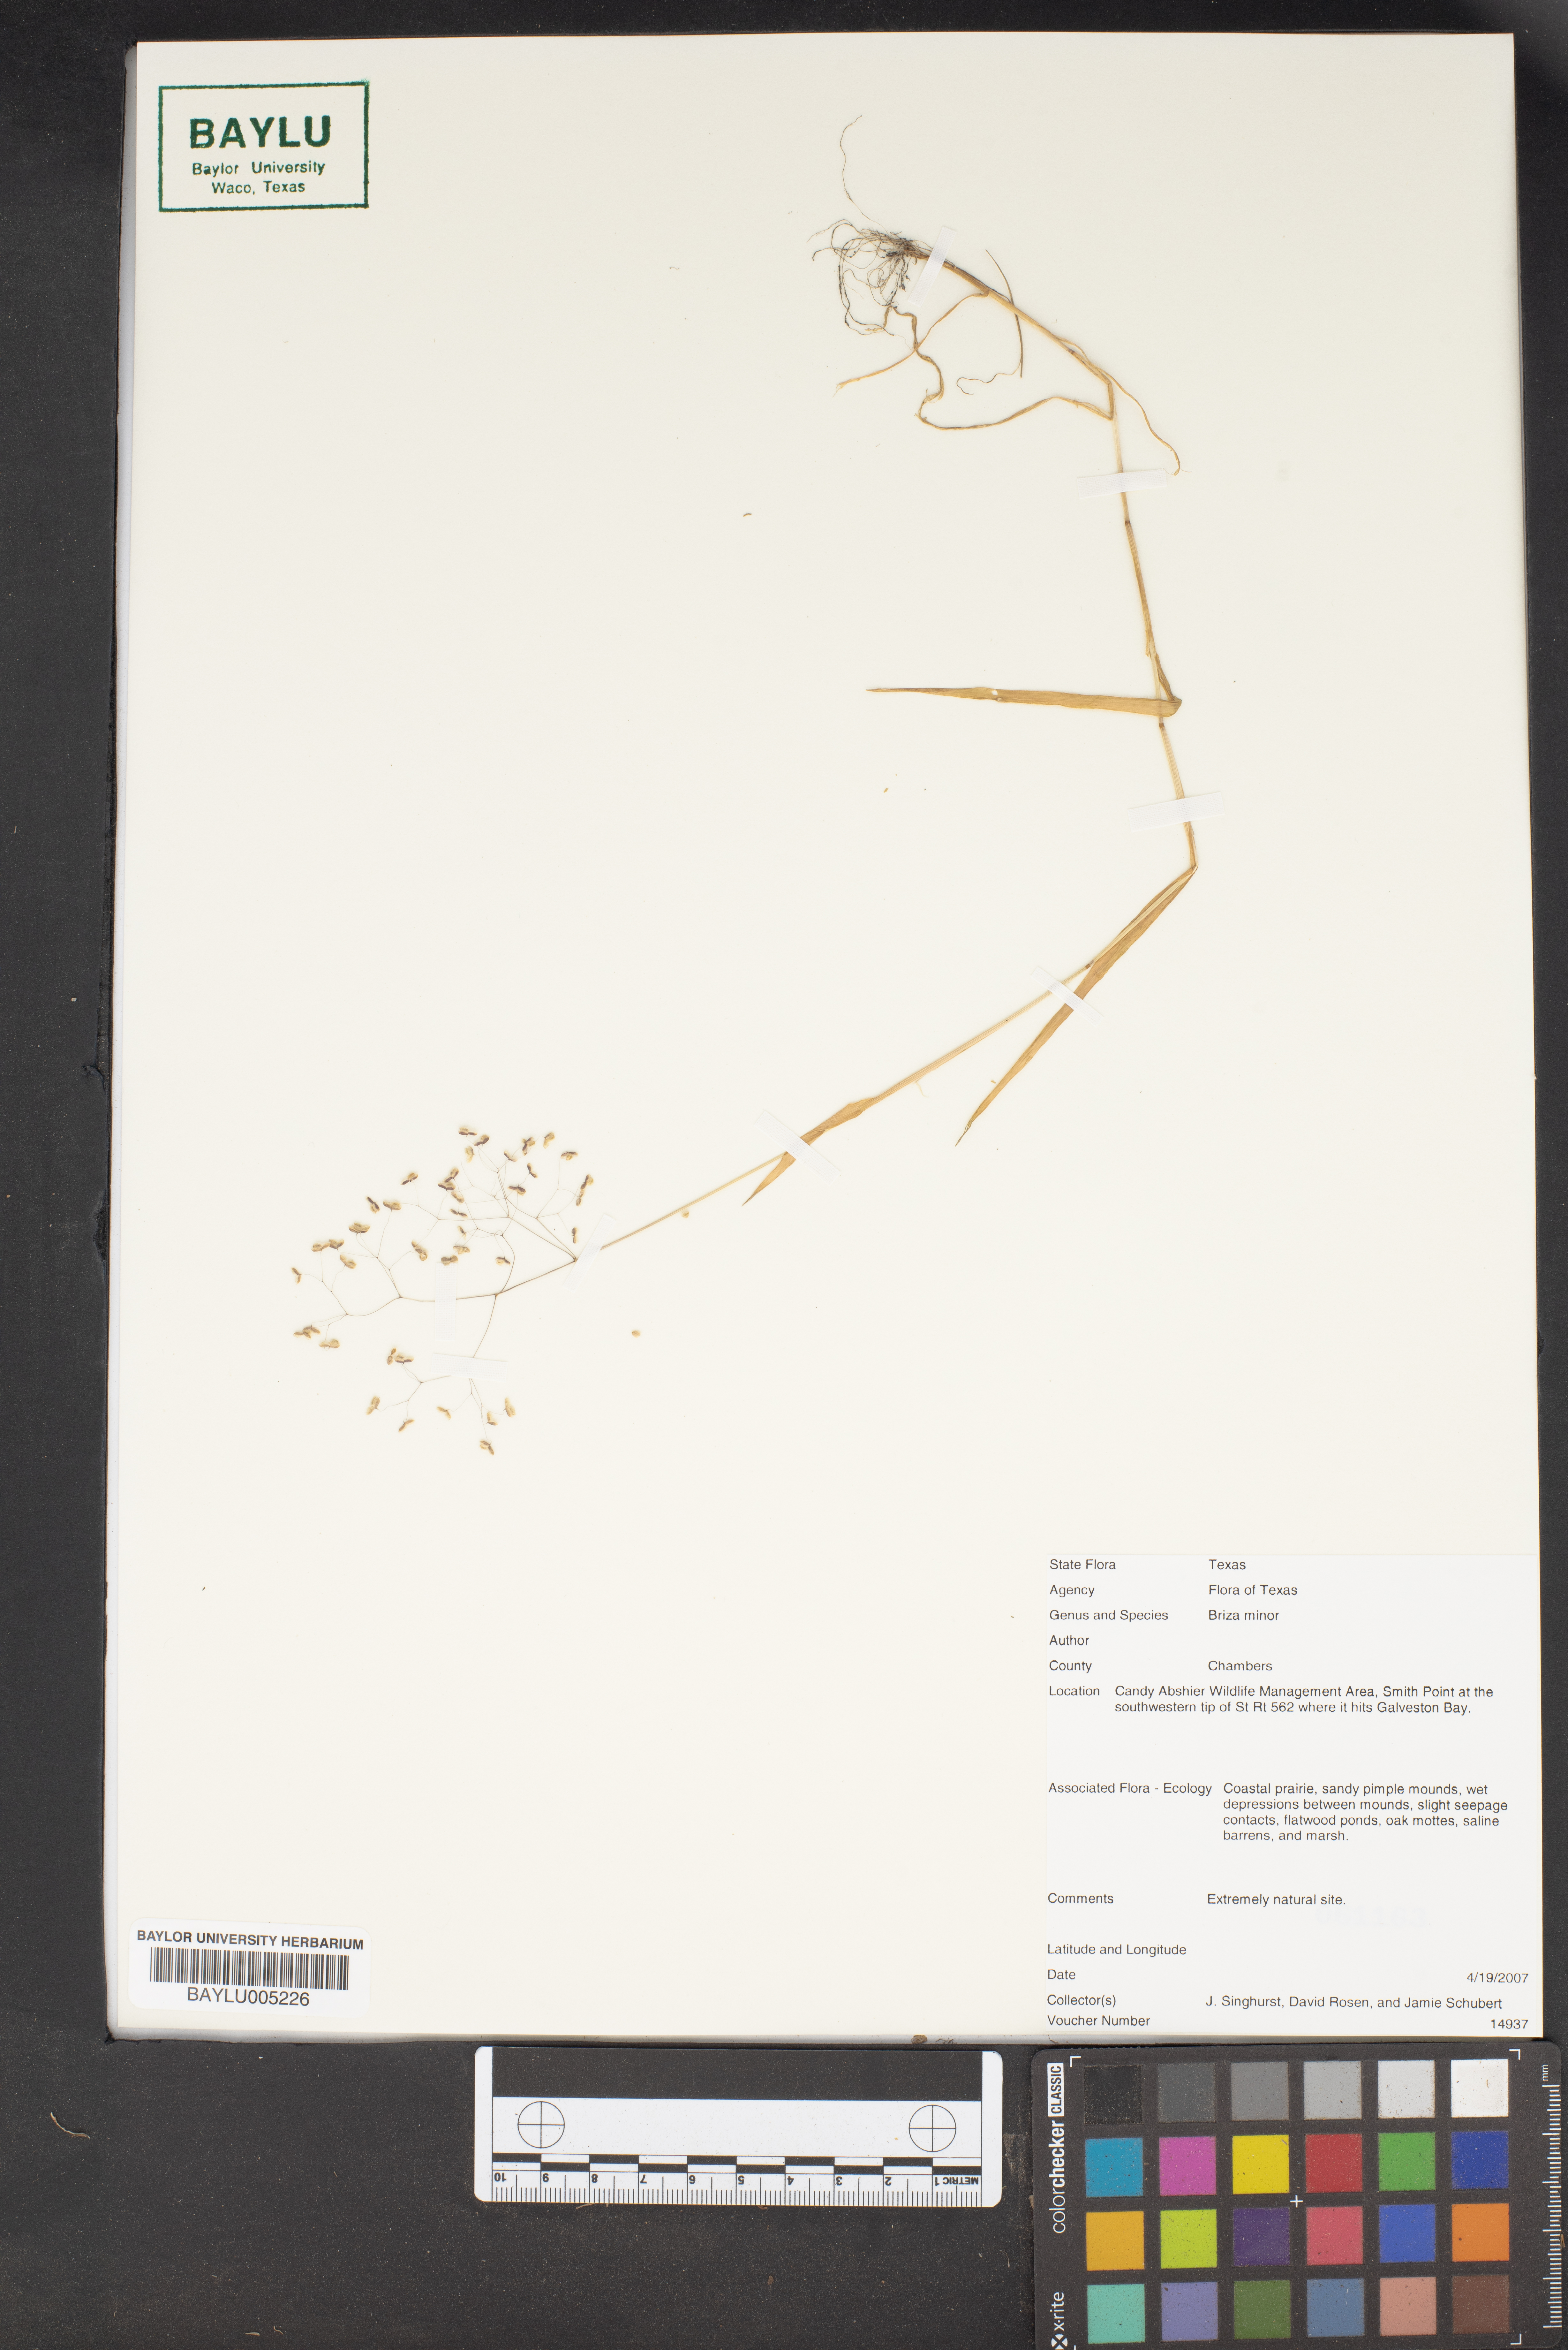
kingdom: Plantae
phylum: Tracheophyta
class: Liliopsida
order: Poales
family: Poaceae
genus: Briza
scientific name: Briza minor
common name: Lesser quaking-grass
